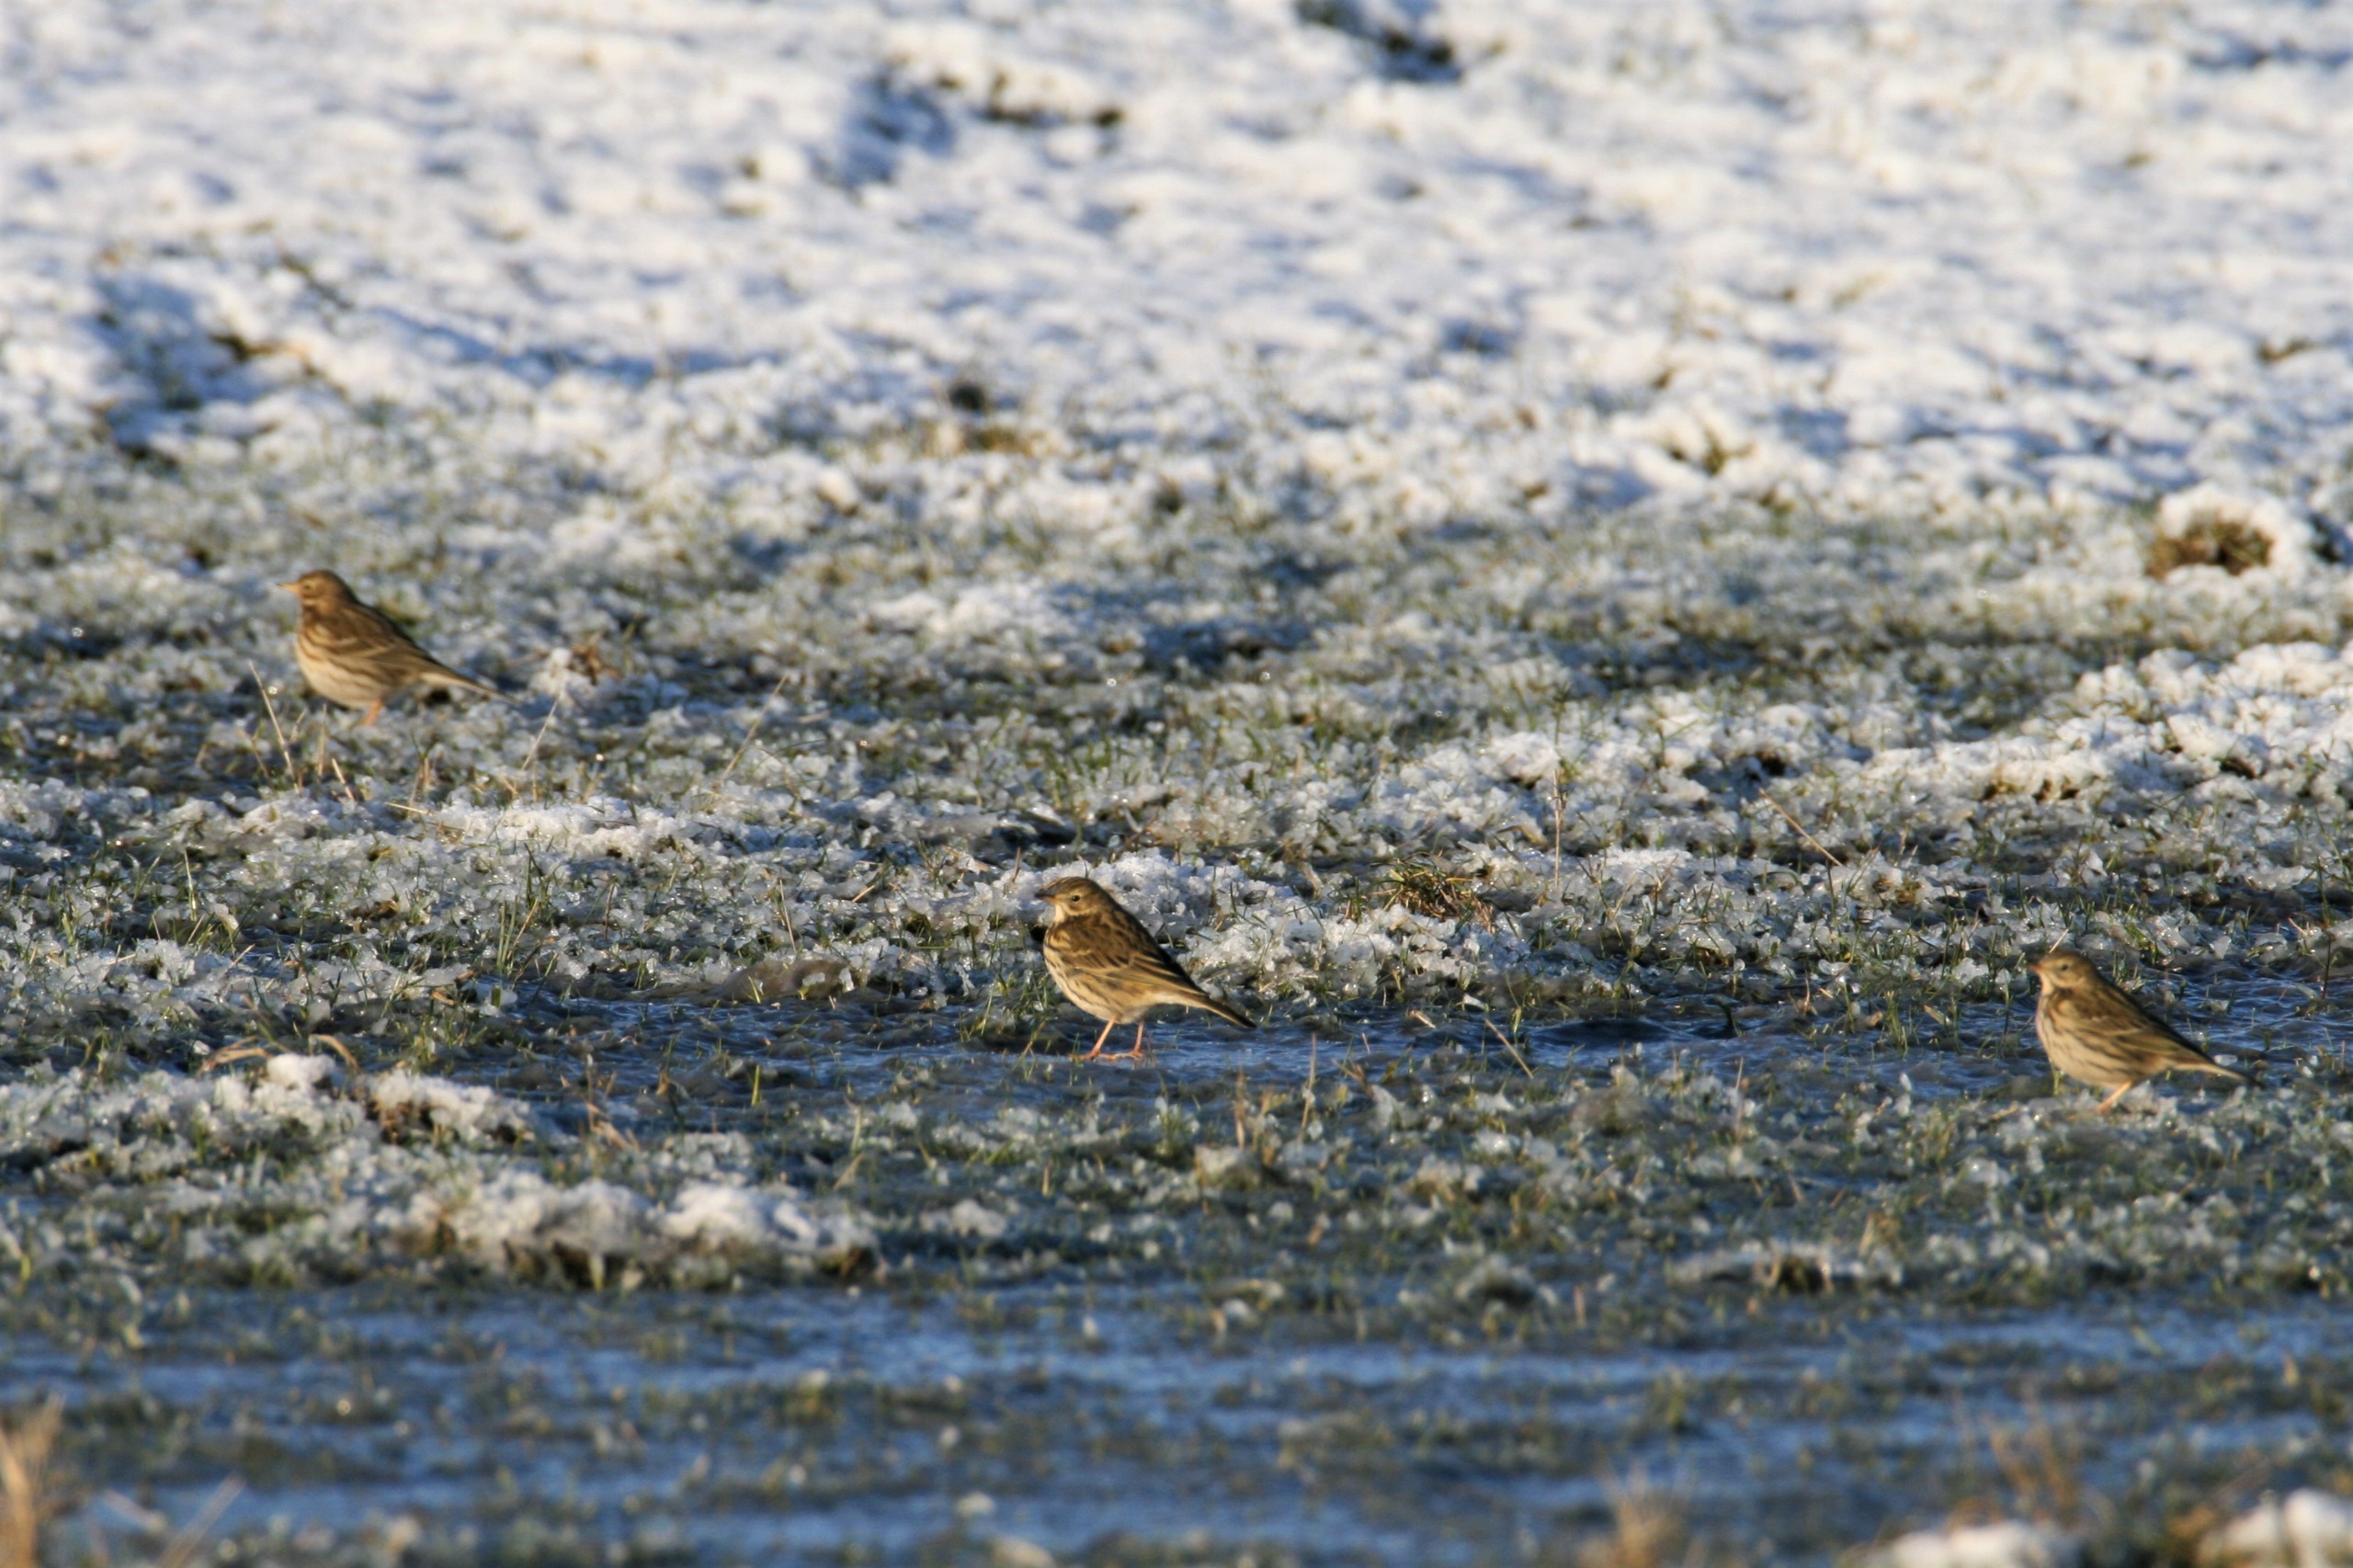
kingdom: Animalia
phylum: Chordata
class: Aves
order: Passeriformes
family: Motacillidae
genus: Anthus
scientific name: Anthus pratensis
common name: Engpiber
